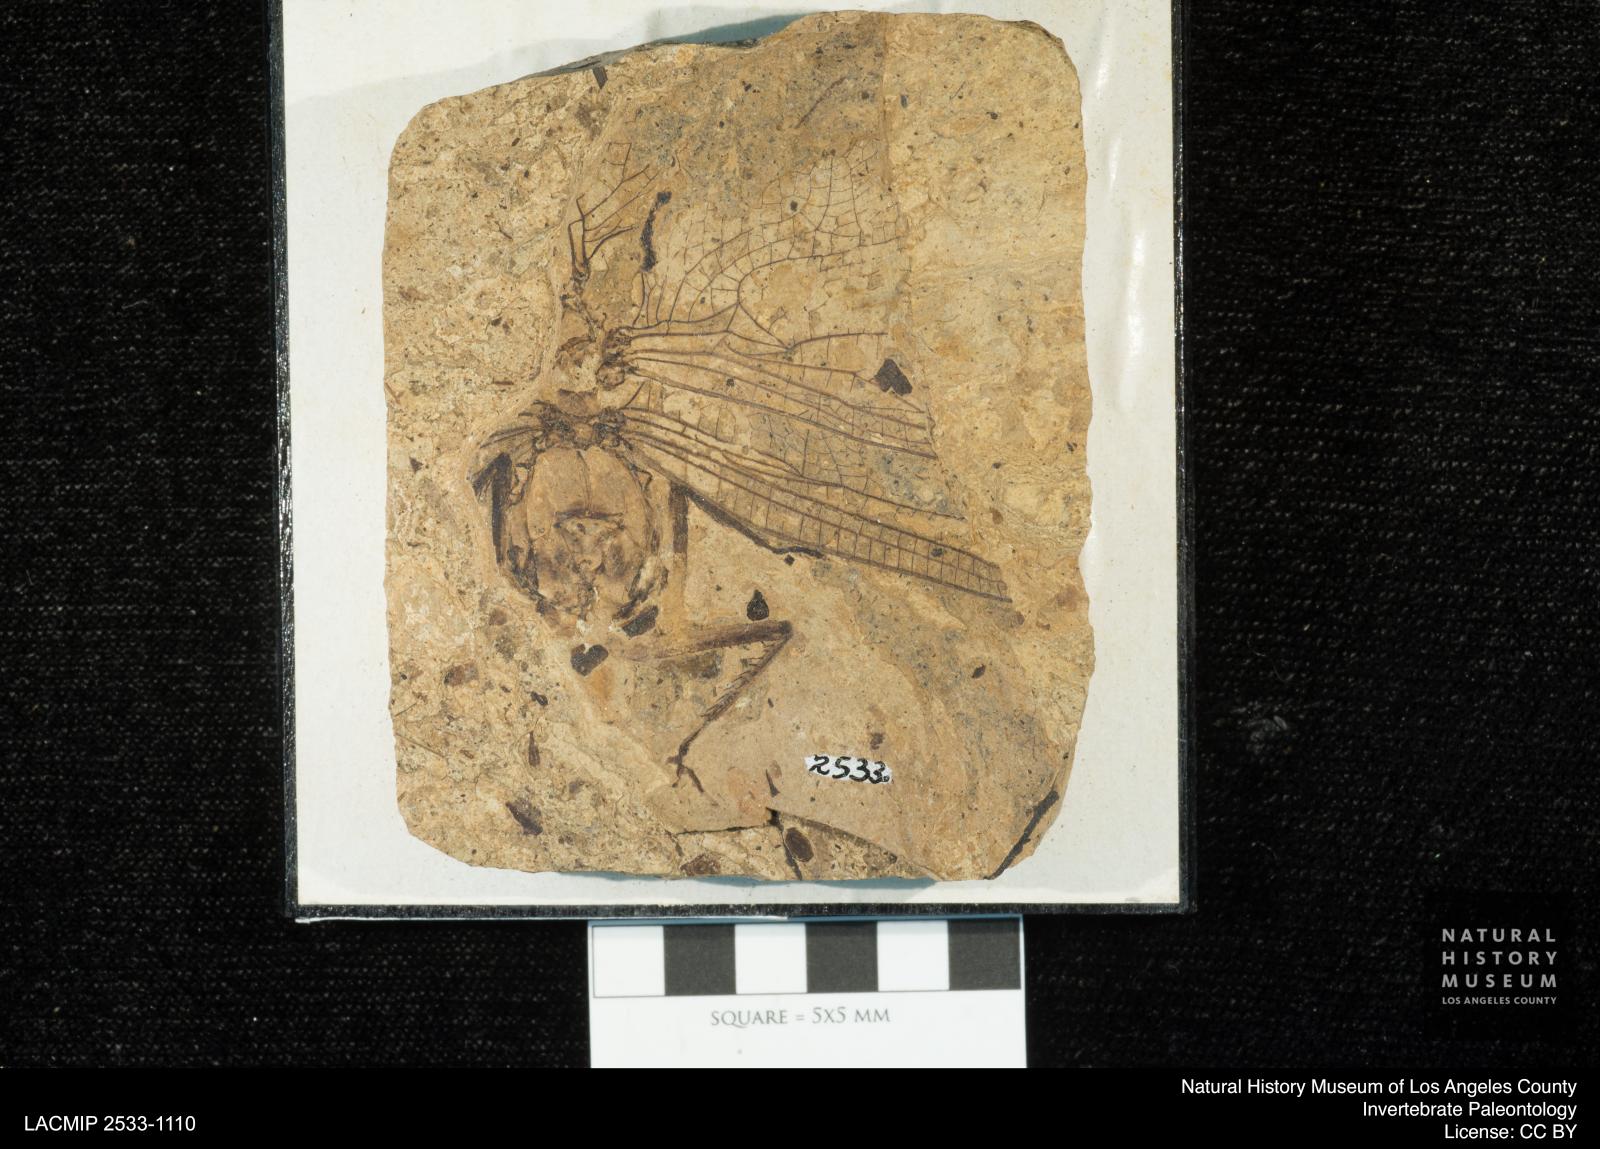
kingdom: Animalia
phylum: Arthropoda
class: Insecta
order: Odonata
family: Libellulidae
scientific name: Libellulidae
